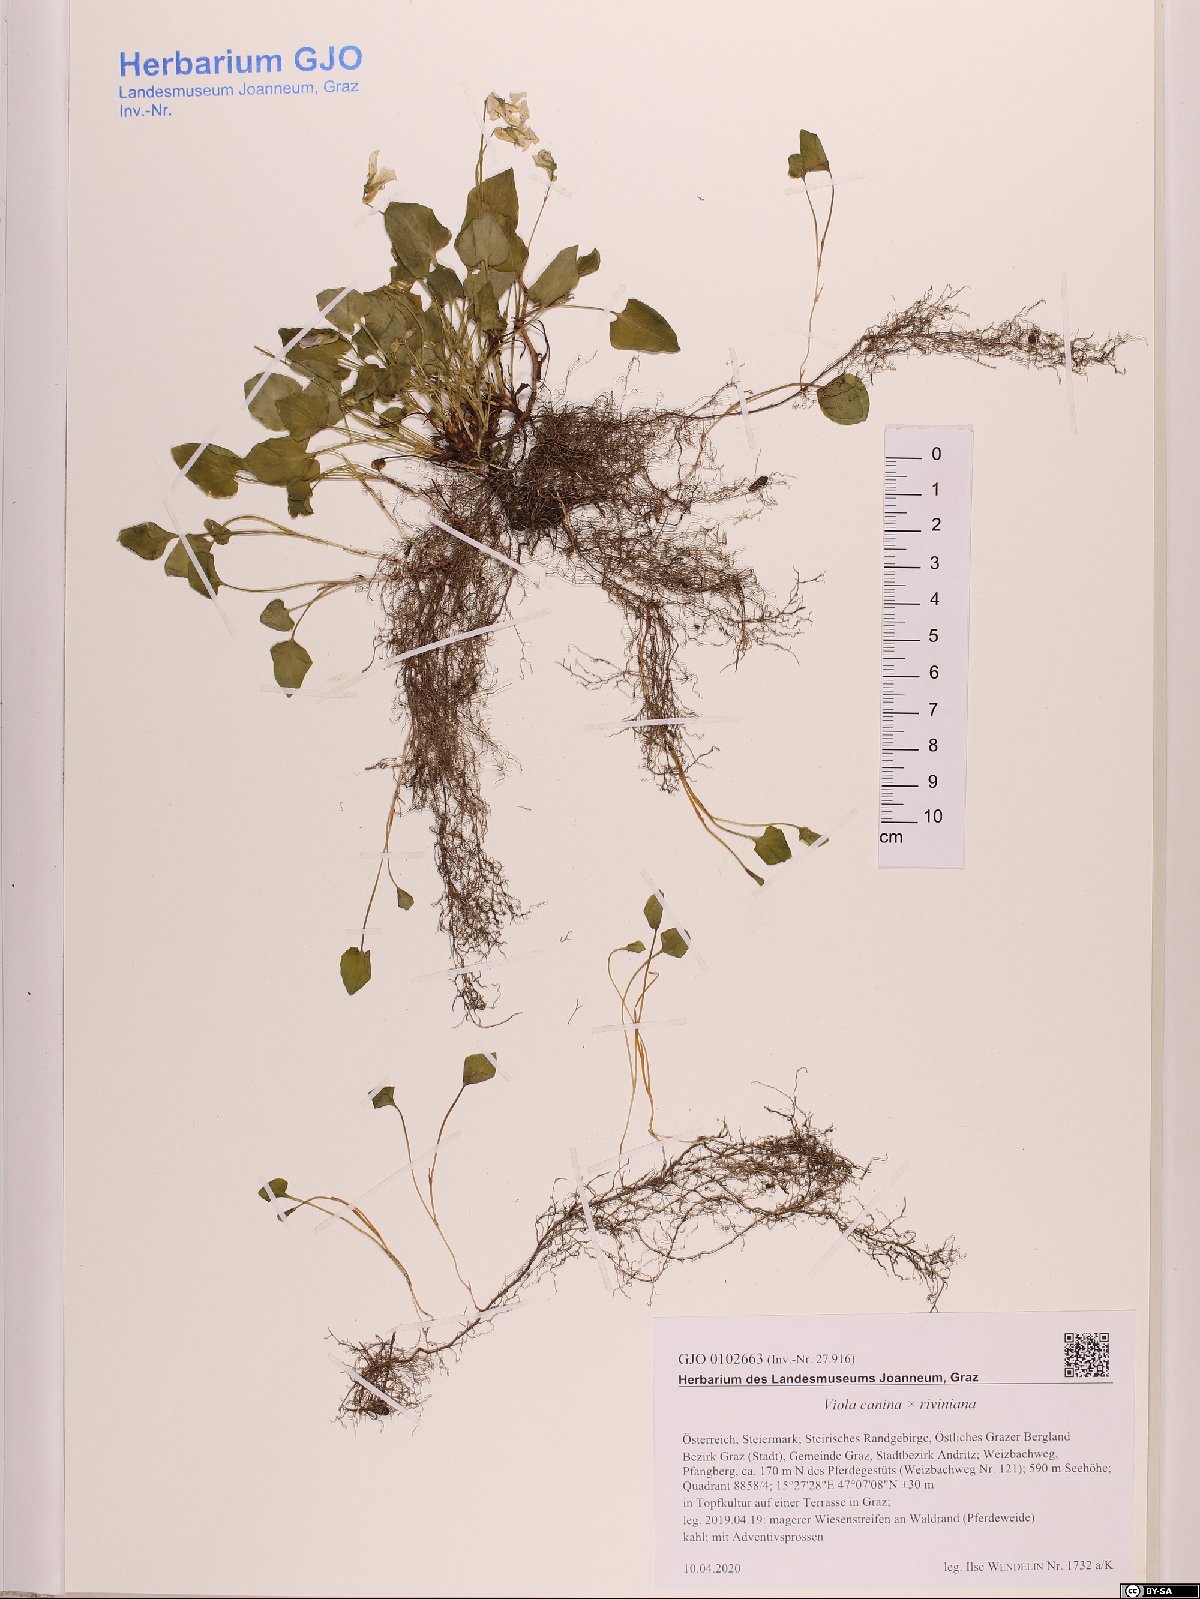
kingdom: Plantae
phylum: Tracheophyta
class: Magnoliopsida
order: Malpighiales
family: Violaceae
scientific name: Violaceae
